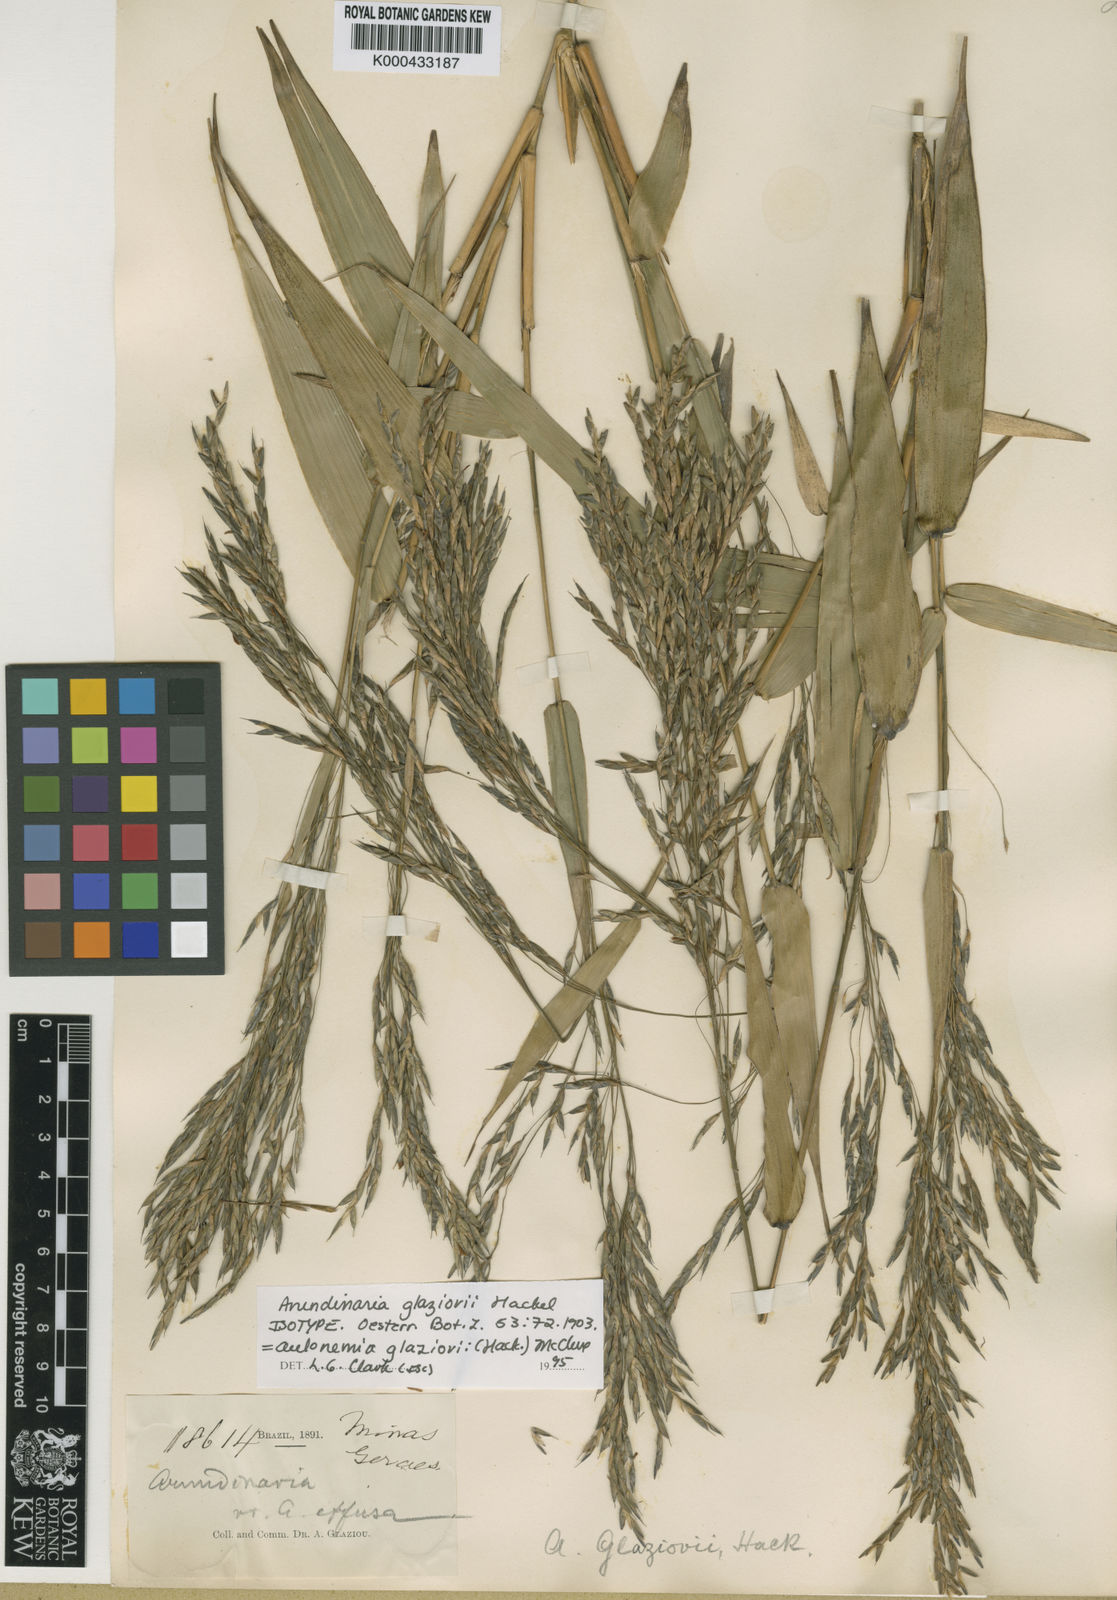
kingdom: Plantae
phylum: Tracheophyta
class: Liliopsida
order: Poales
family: Poaceae
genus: Aulonemia
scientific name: Aulonemia radiata
